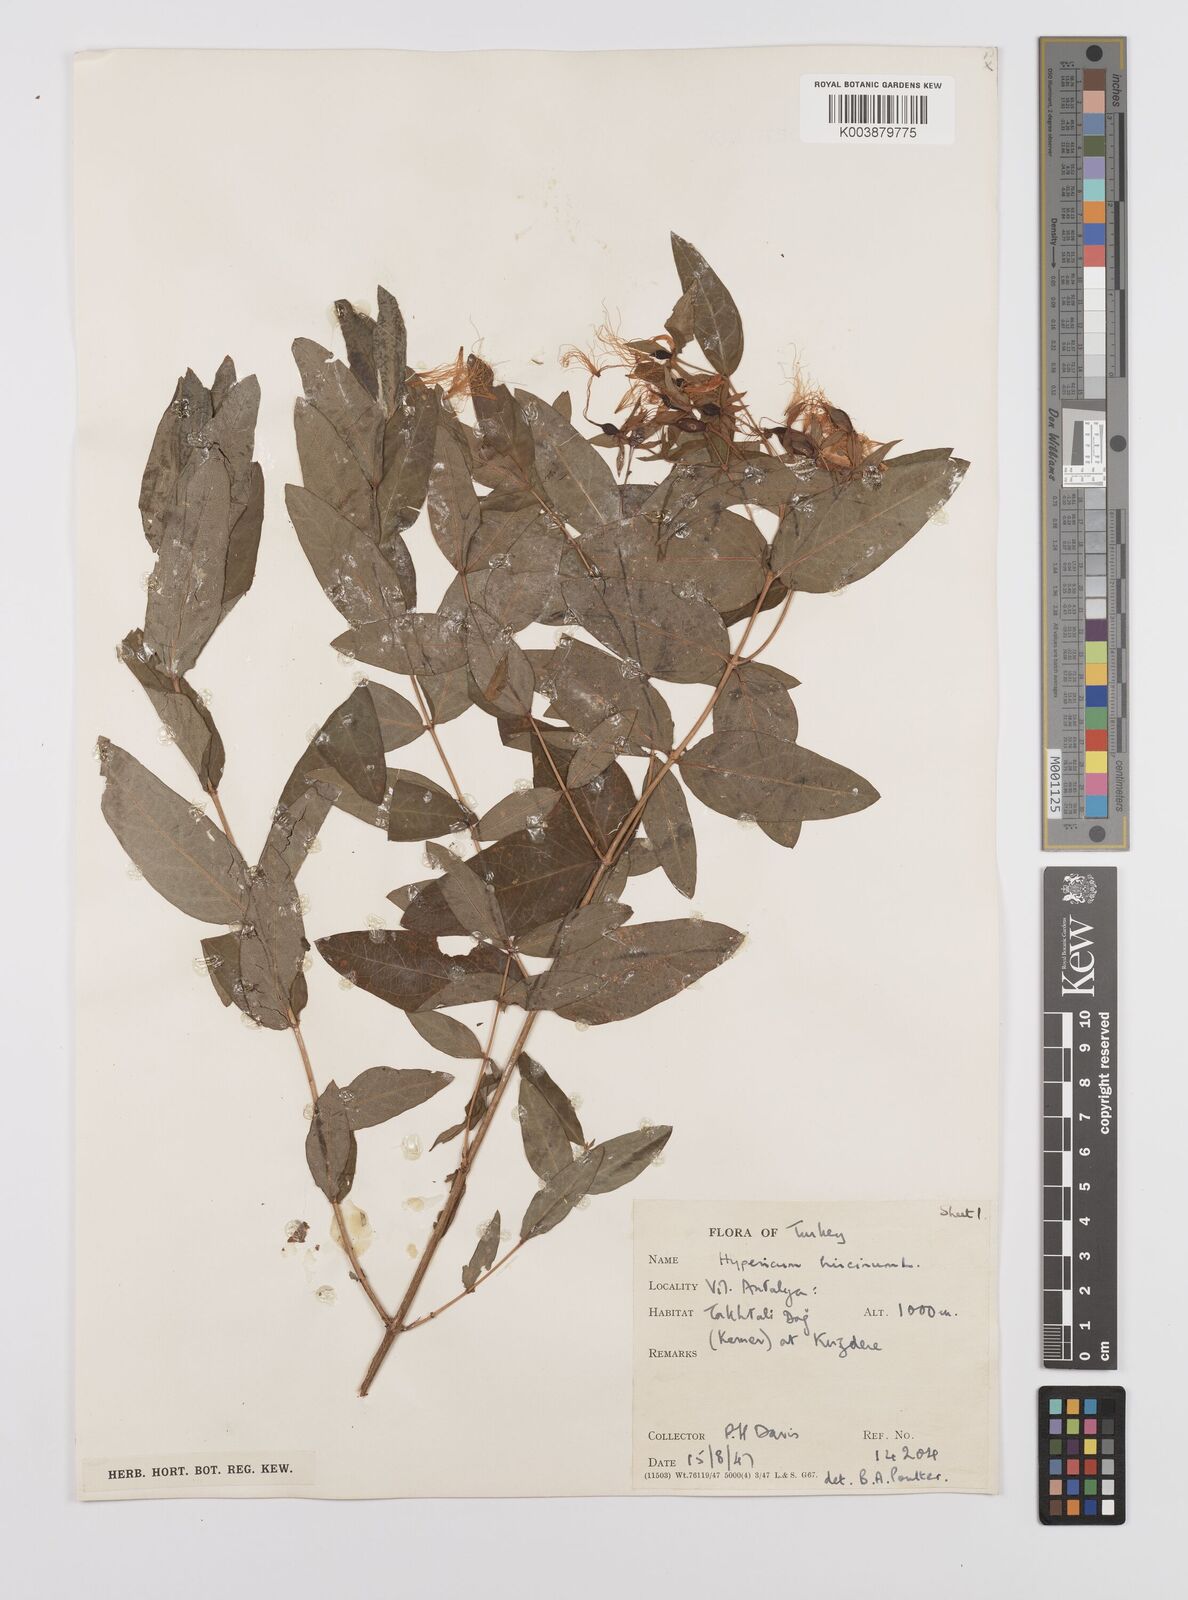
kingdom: Plantae
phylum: Tracheophyta
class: Magnoliopsida
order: Malpighiales
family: Hypericaceae
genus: Hypericum
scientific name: Hypericum hircinum
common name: Stinking tutsan
